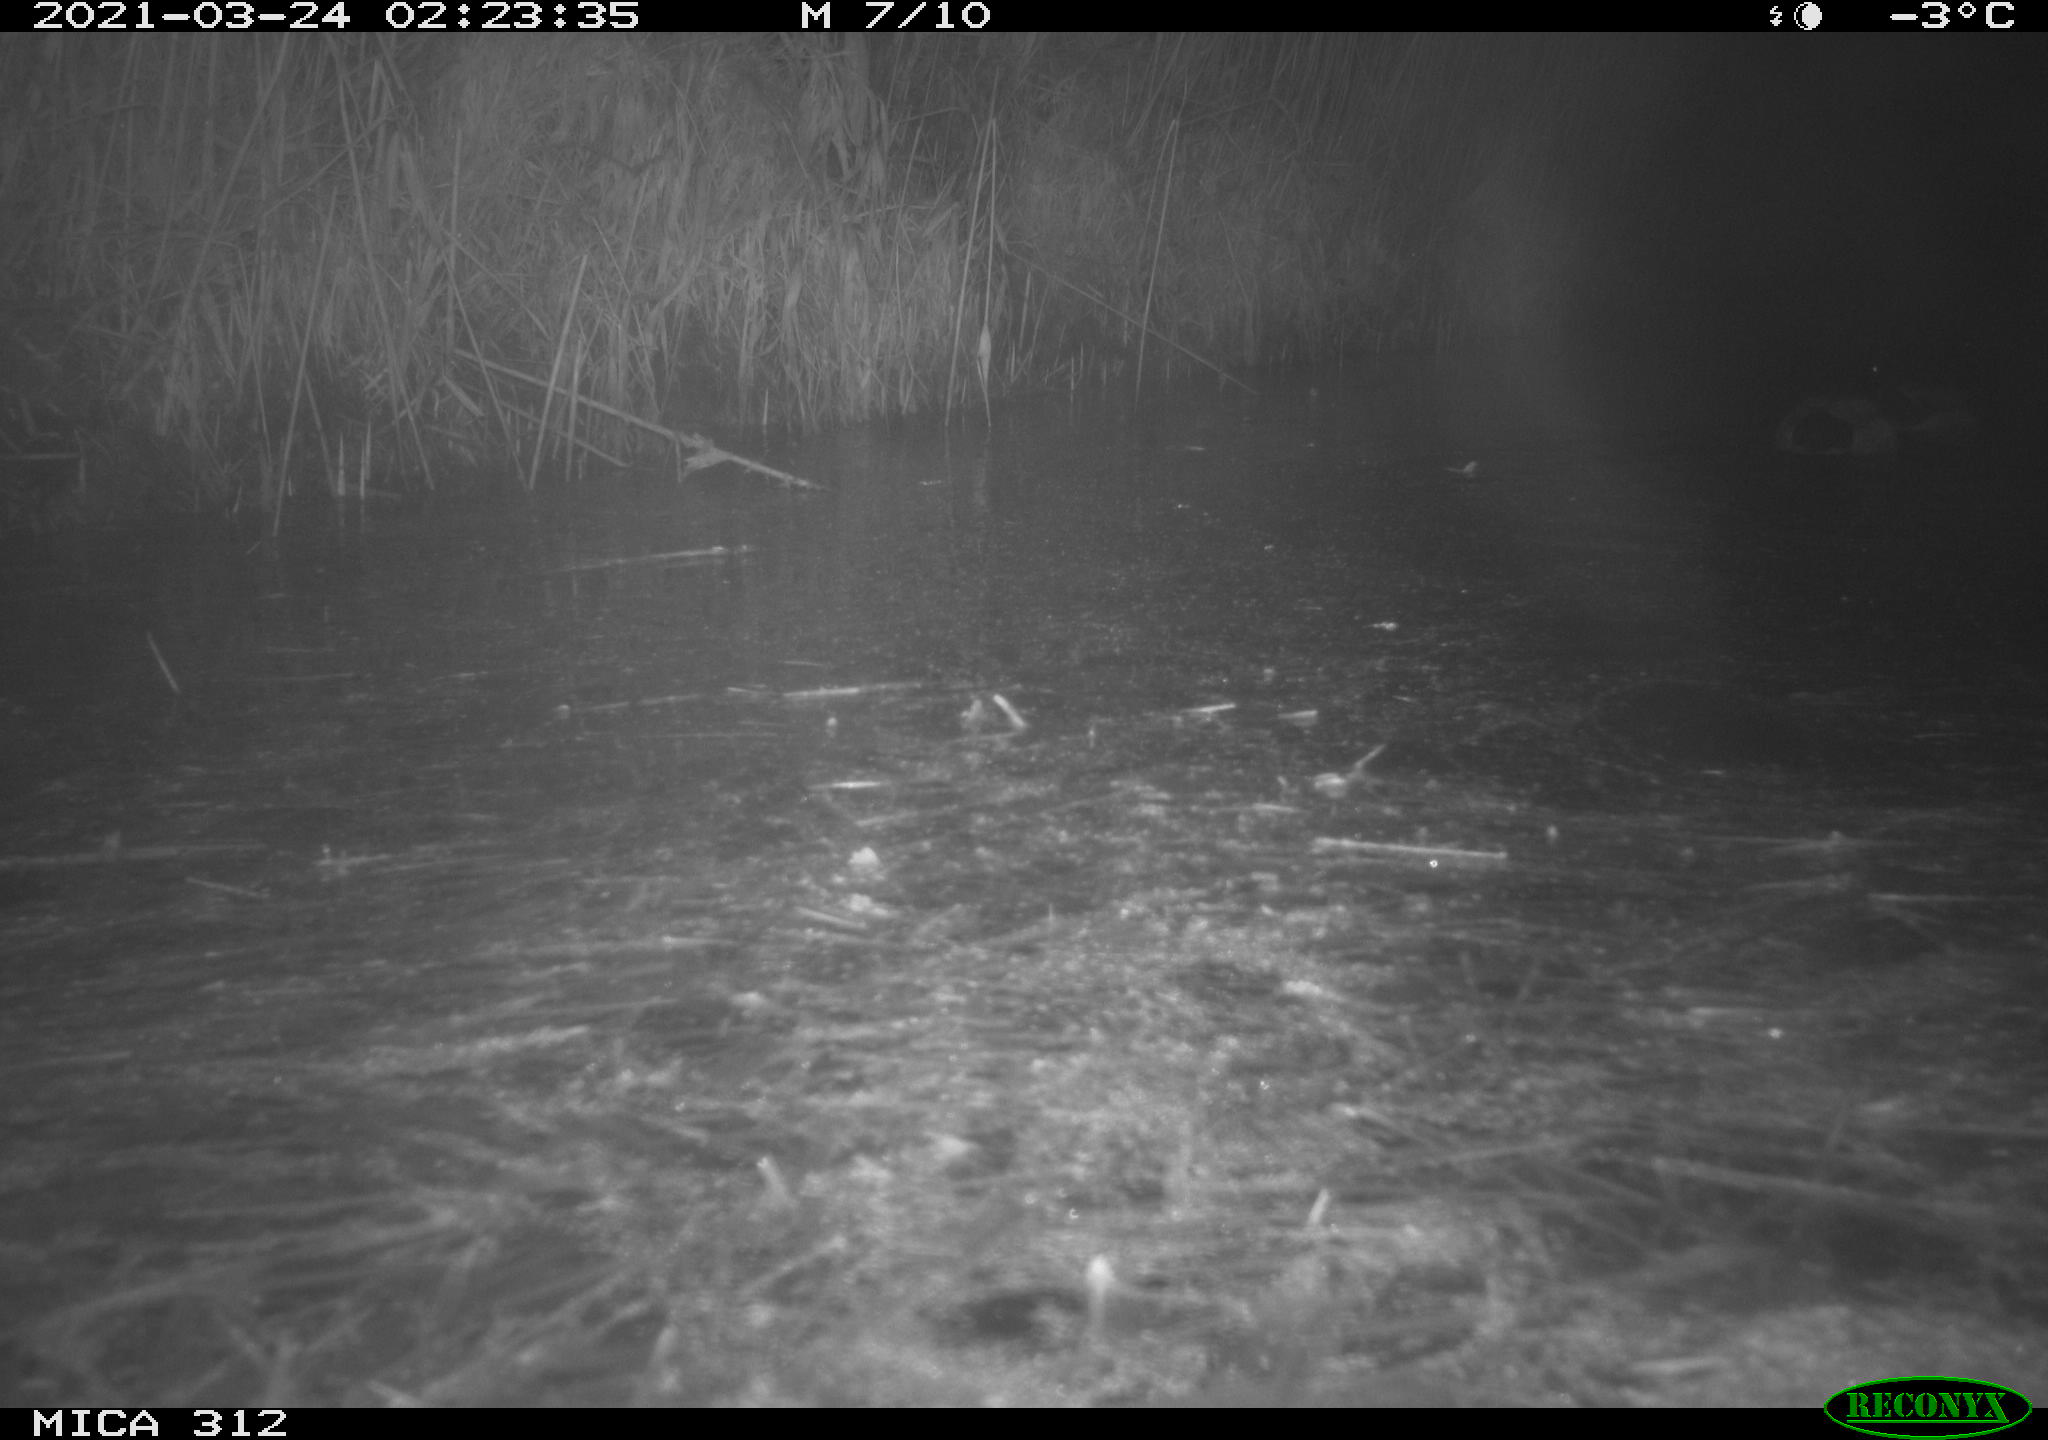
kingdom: Animalia
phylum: Chordata
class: Aves
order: Anseriformes
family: Anatidae
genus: Anas
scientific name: Anas platyrhynchos
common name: Mallard
